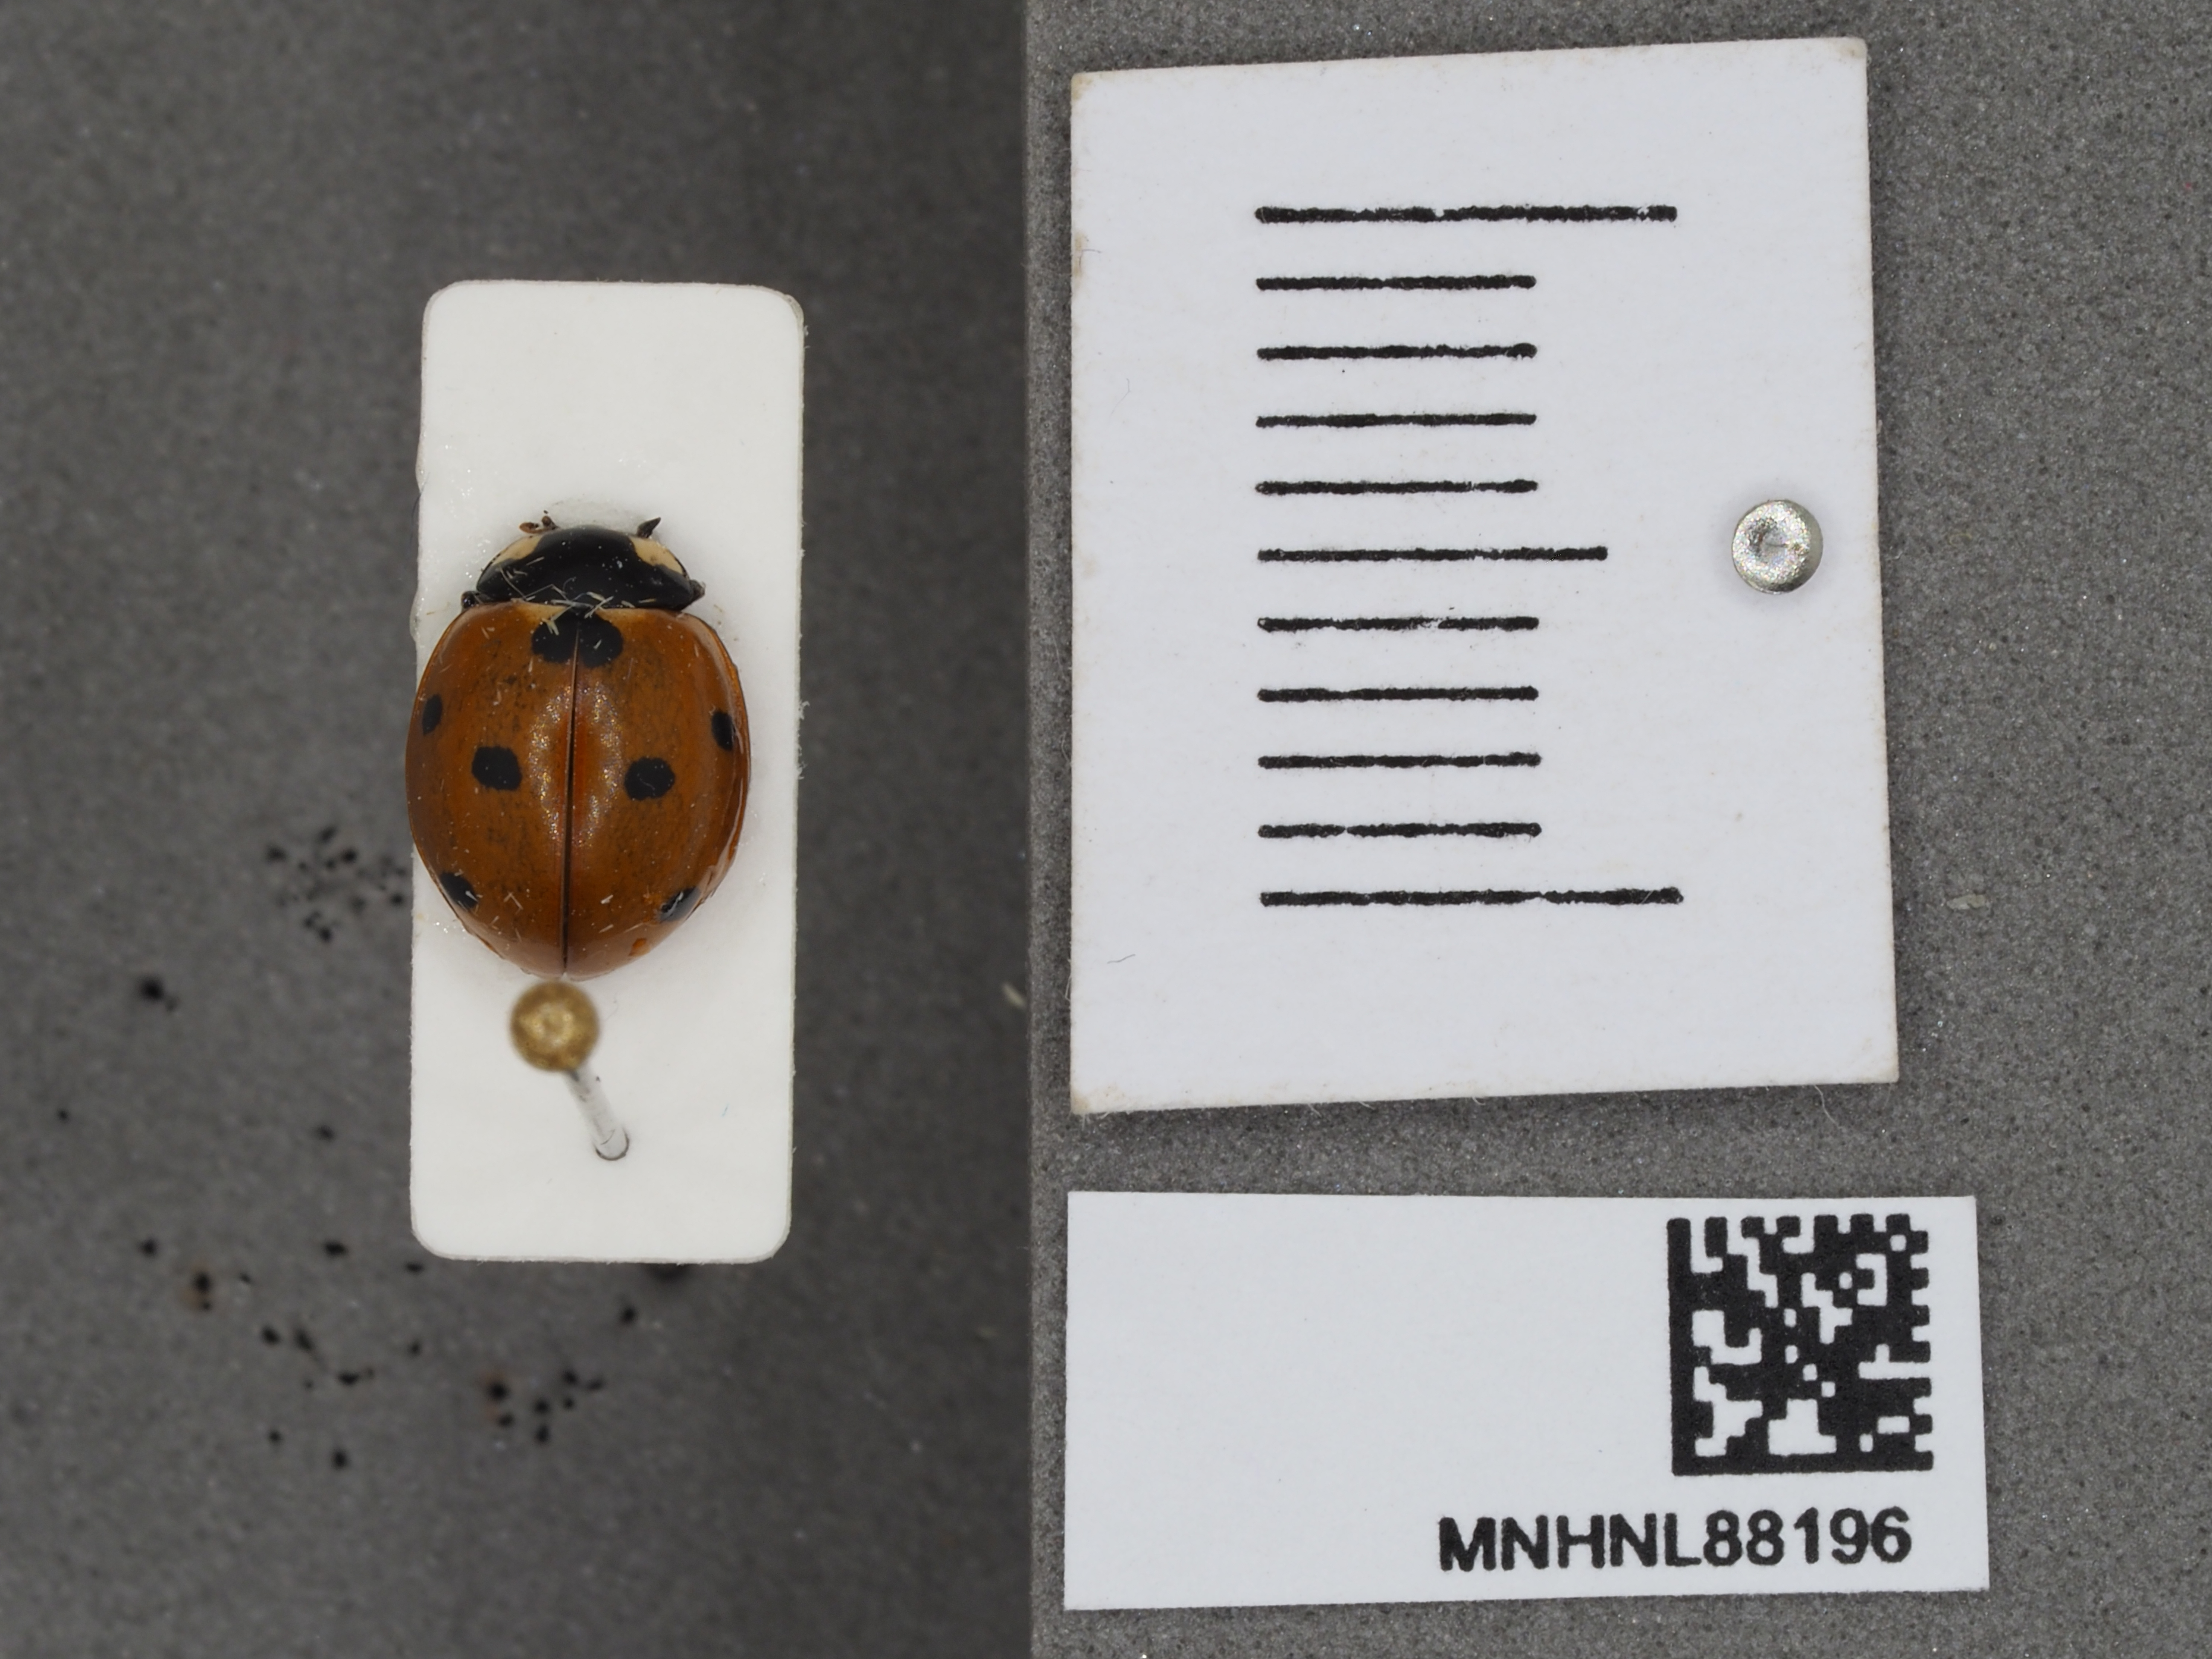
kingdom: Animalia
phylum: Arthropoda
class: Insecta
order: Coleoptera
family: Coccinellidae
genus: Coccinella
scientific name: Coccinella septempunctata
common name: Sevenspotted lady beetle
